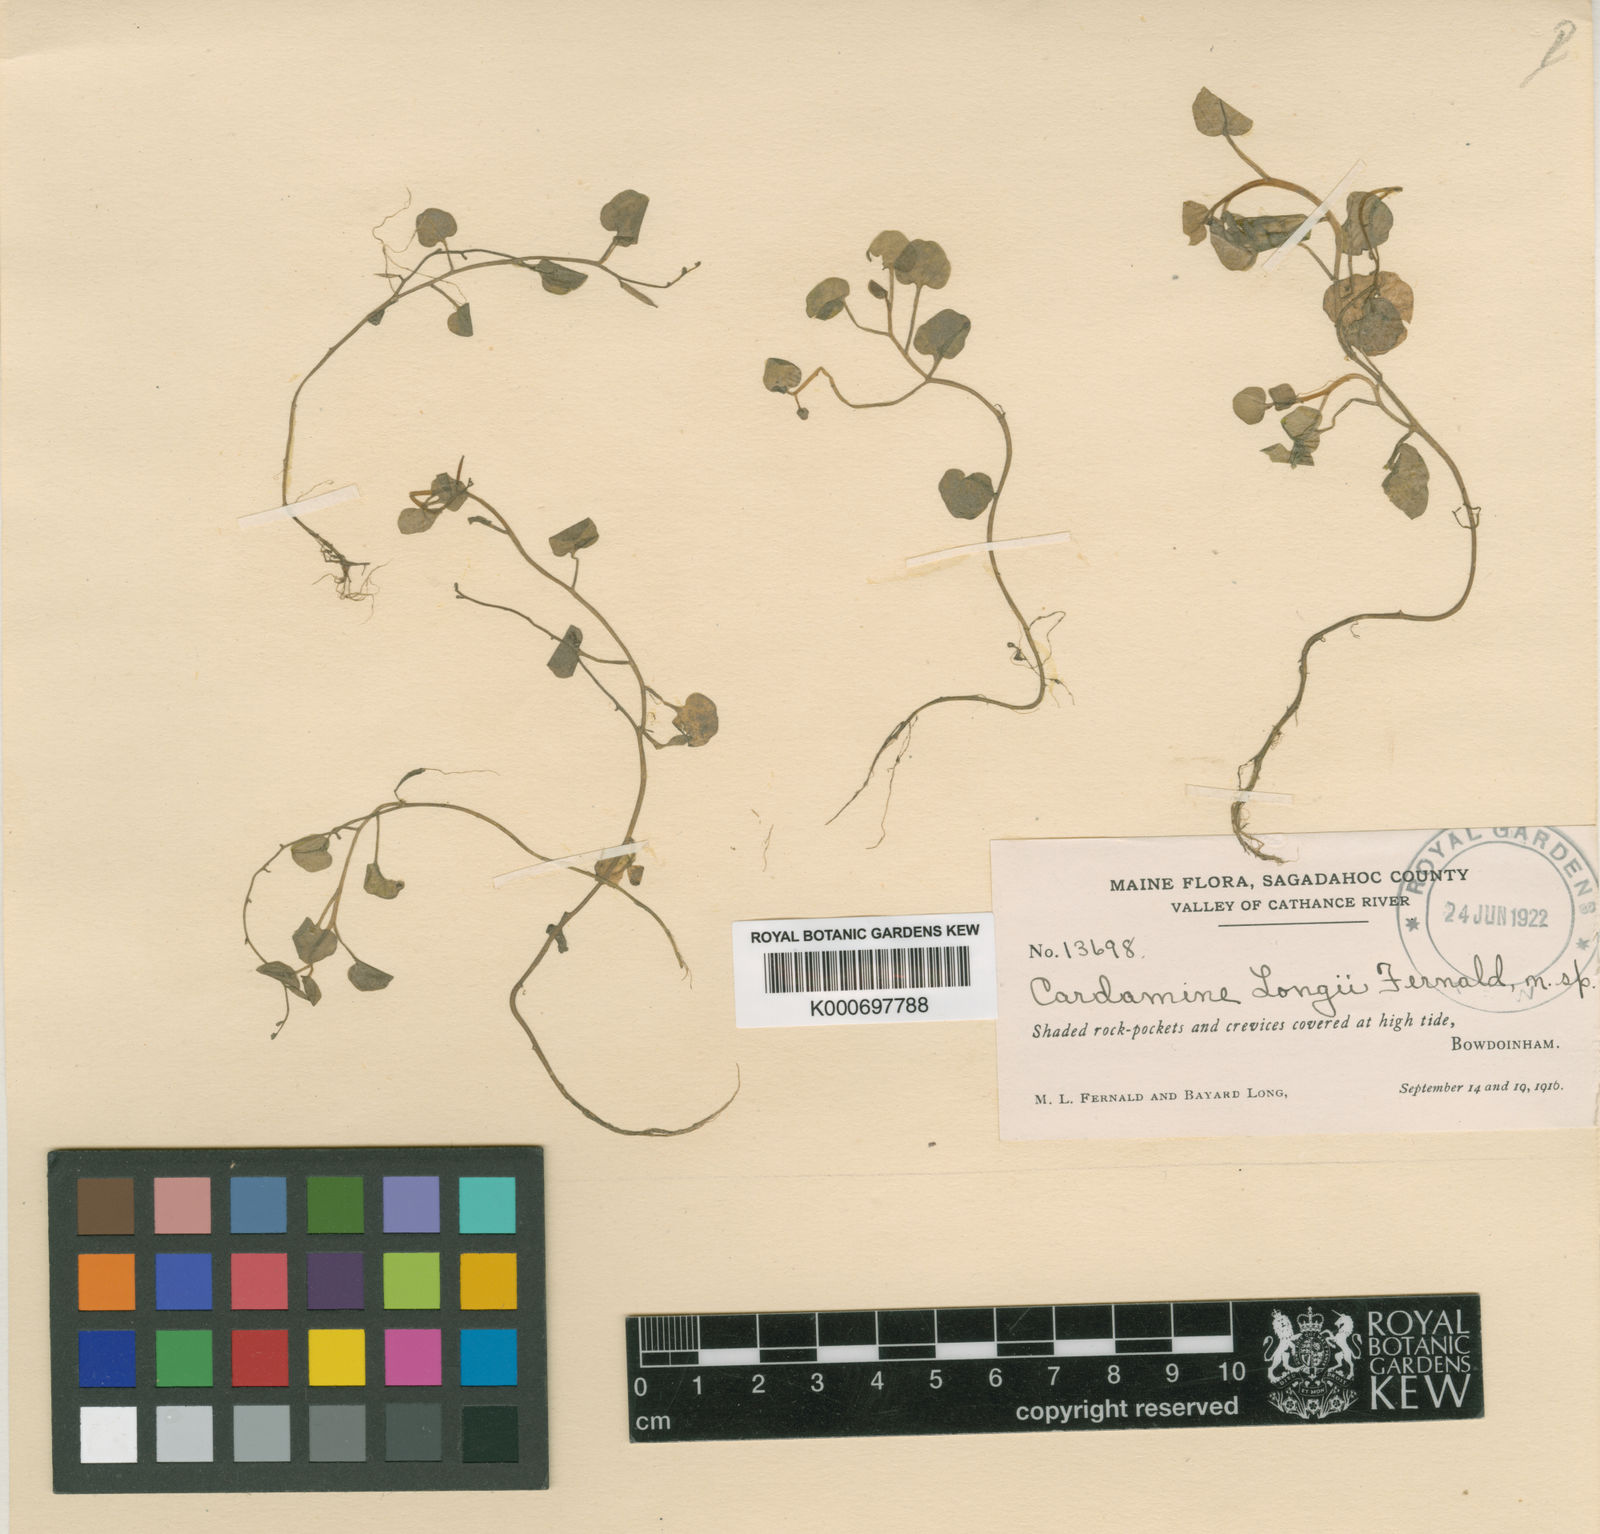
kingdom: Plantae
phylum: Tracheophyta
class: Magnoliopsida
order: Brassicales
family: Brassicaceae
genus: Cardamine
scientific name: Cardamine longii
